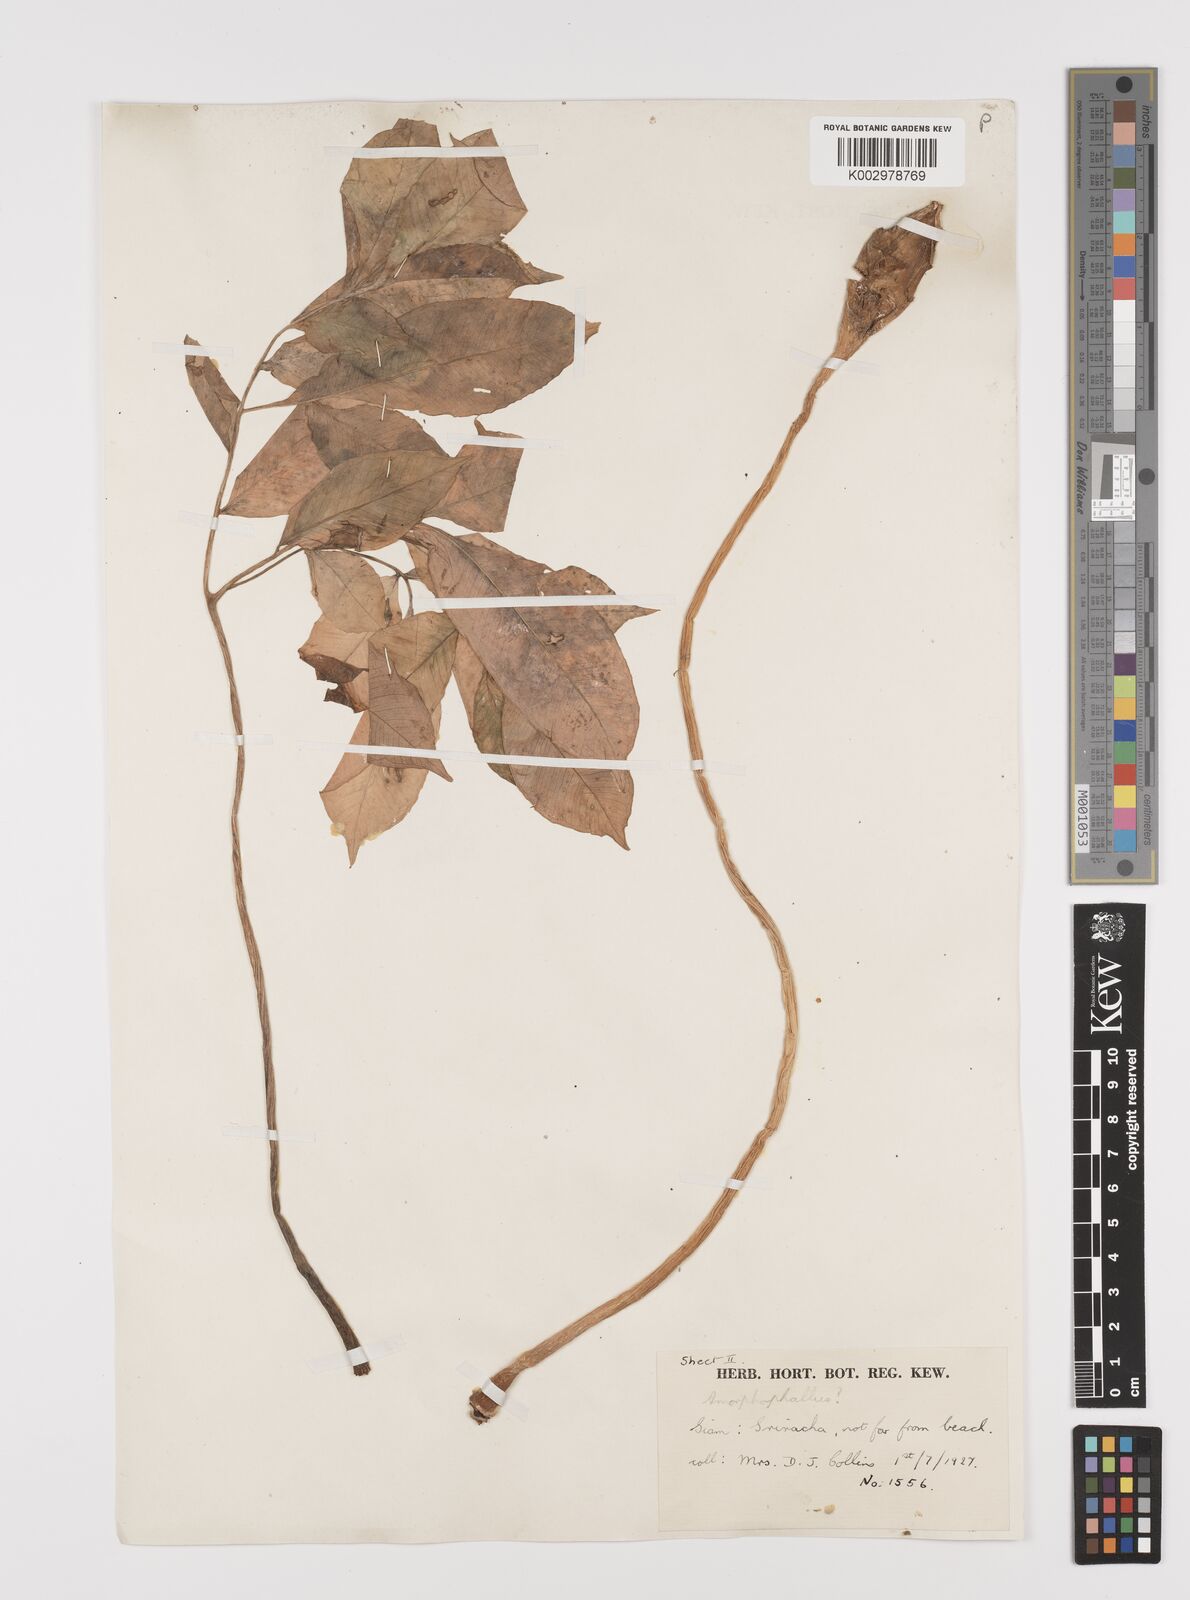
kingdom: Plantae
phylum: Tracheophyta
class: Liliopsida
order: Alismatales
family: Araceae
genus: Amorphophallus
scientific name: Amorphophallus
